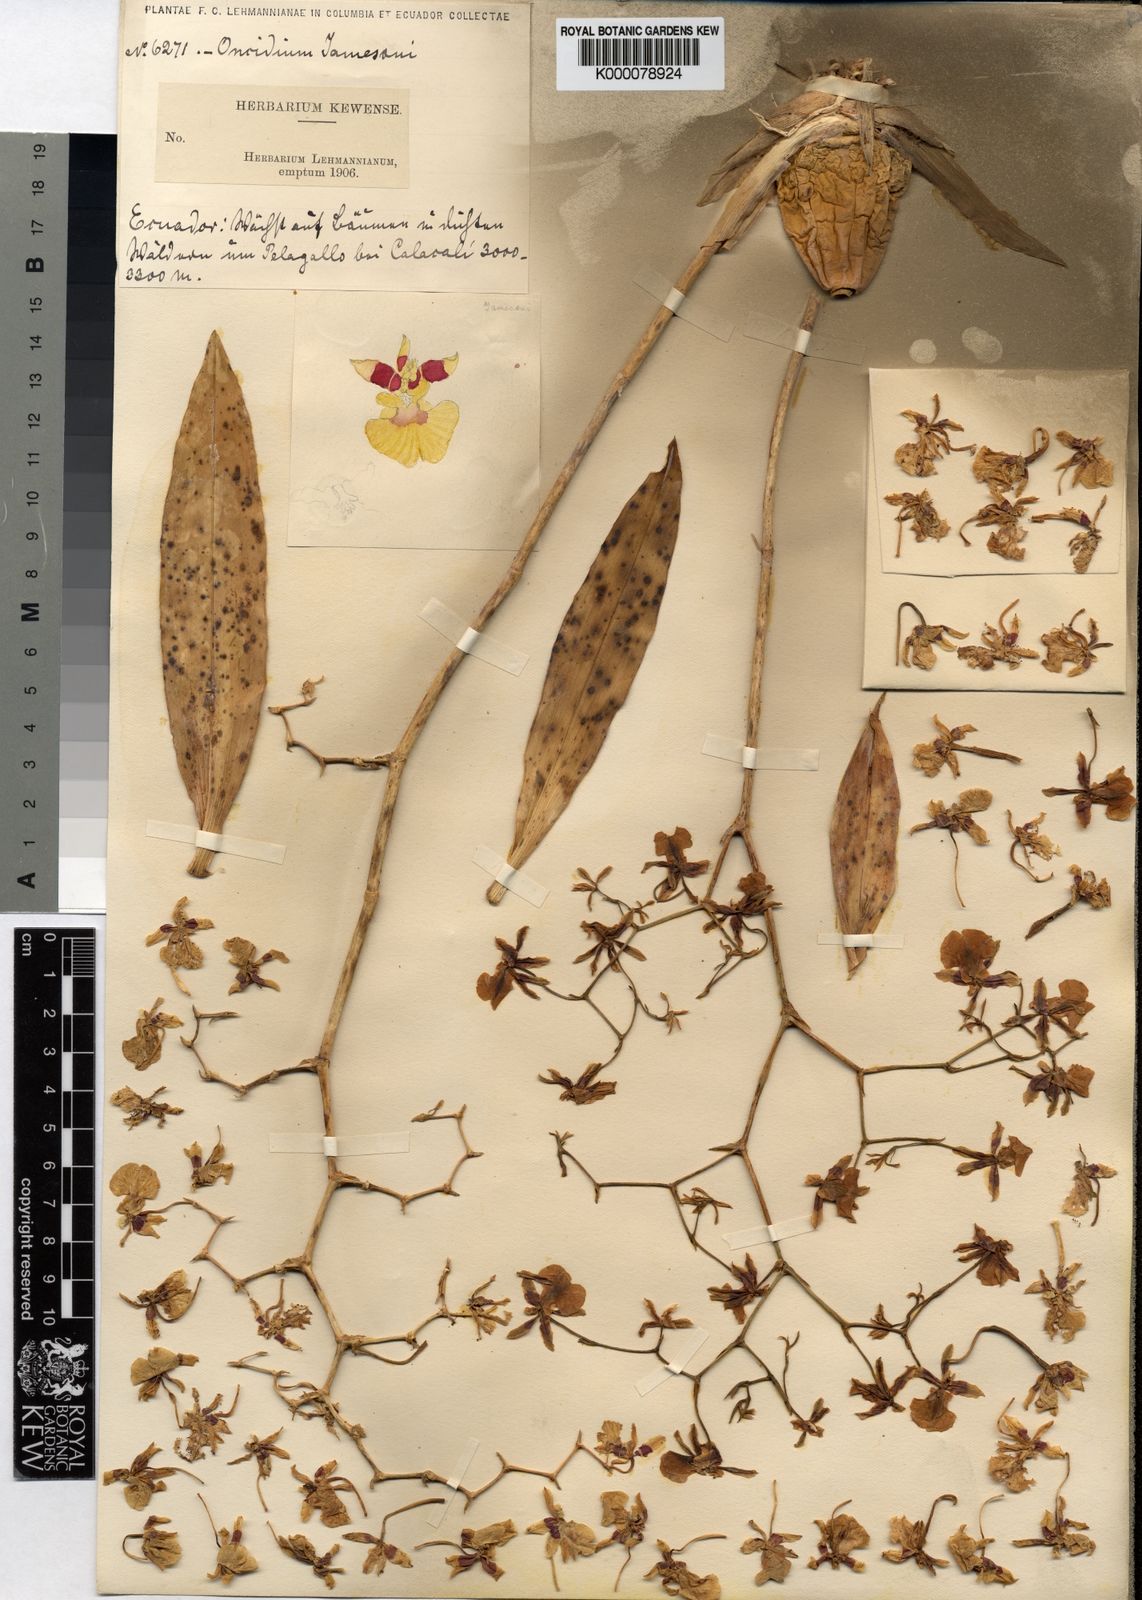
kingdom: Plantae
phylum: Tracheophyta
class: Liliopsida
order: Asparagales
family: Orchidaceae
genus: Oncidium
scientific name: Oncidium cultratum
